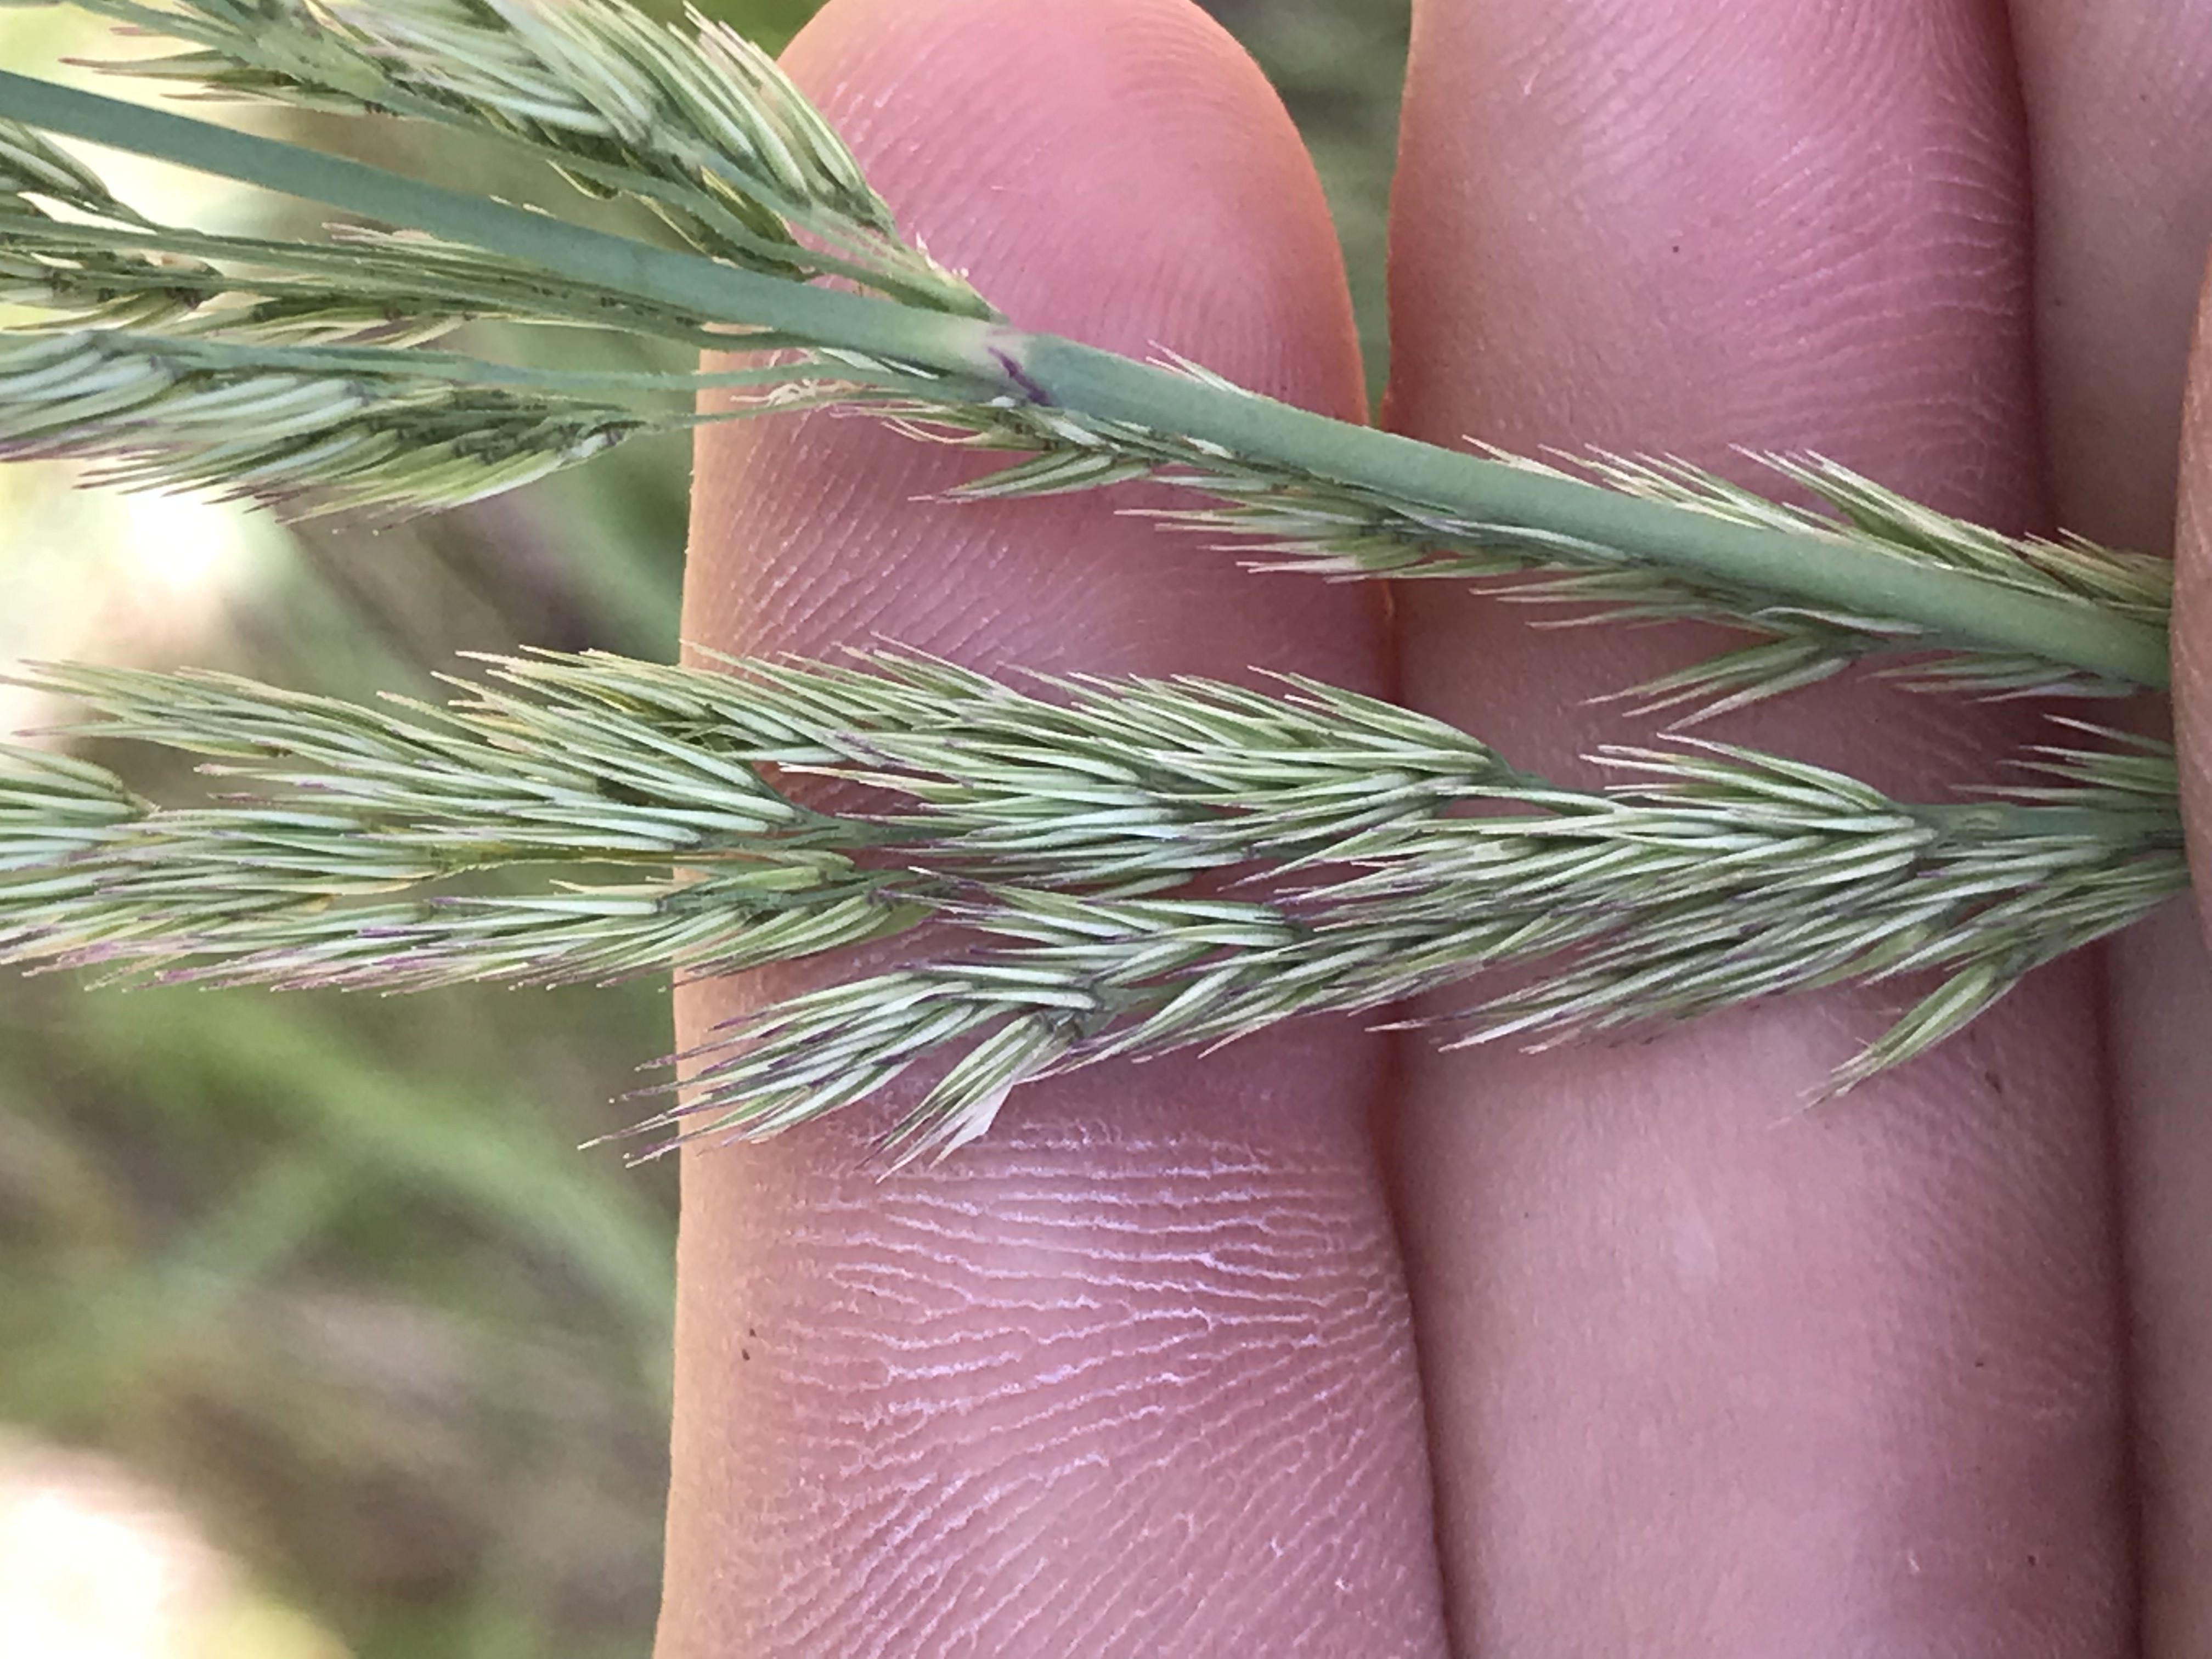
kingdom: Plantae
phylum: Tracheophyta
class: Liliopsida
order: Poales
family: Poaceae
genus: Calamagrostis
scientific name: Calamagrostis epigejos
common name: Bjerg-rørhvene
